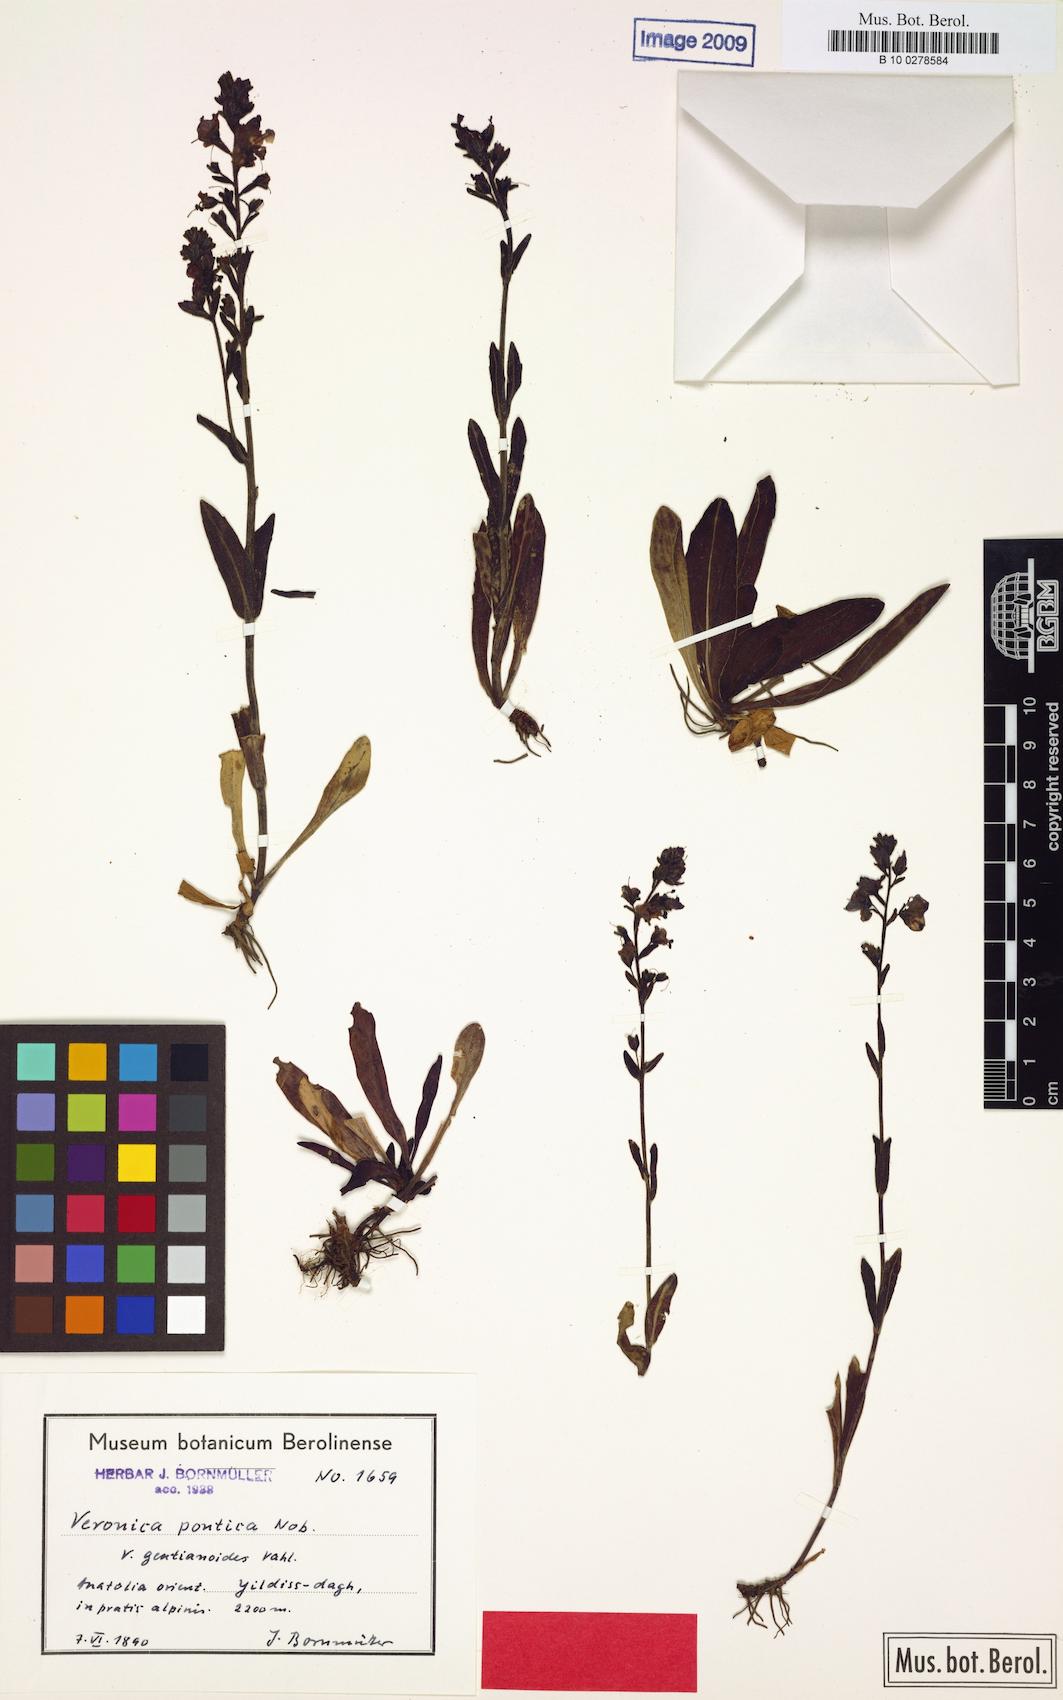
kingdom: Plantae
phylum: Tracheophyta
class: Magnoliopsida
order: Lamiales
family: Plantaginaceae
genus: Veronica
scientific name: Veronica gentianoides
